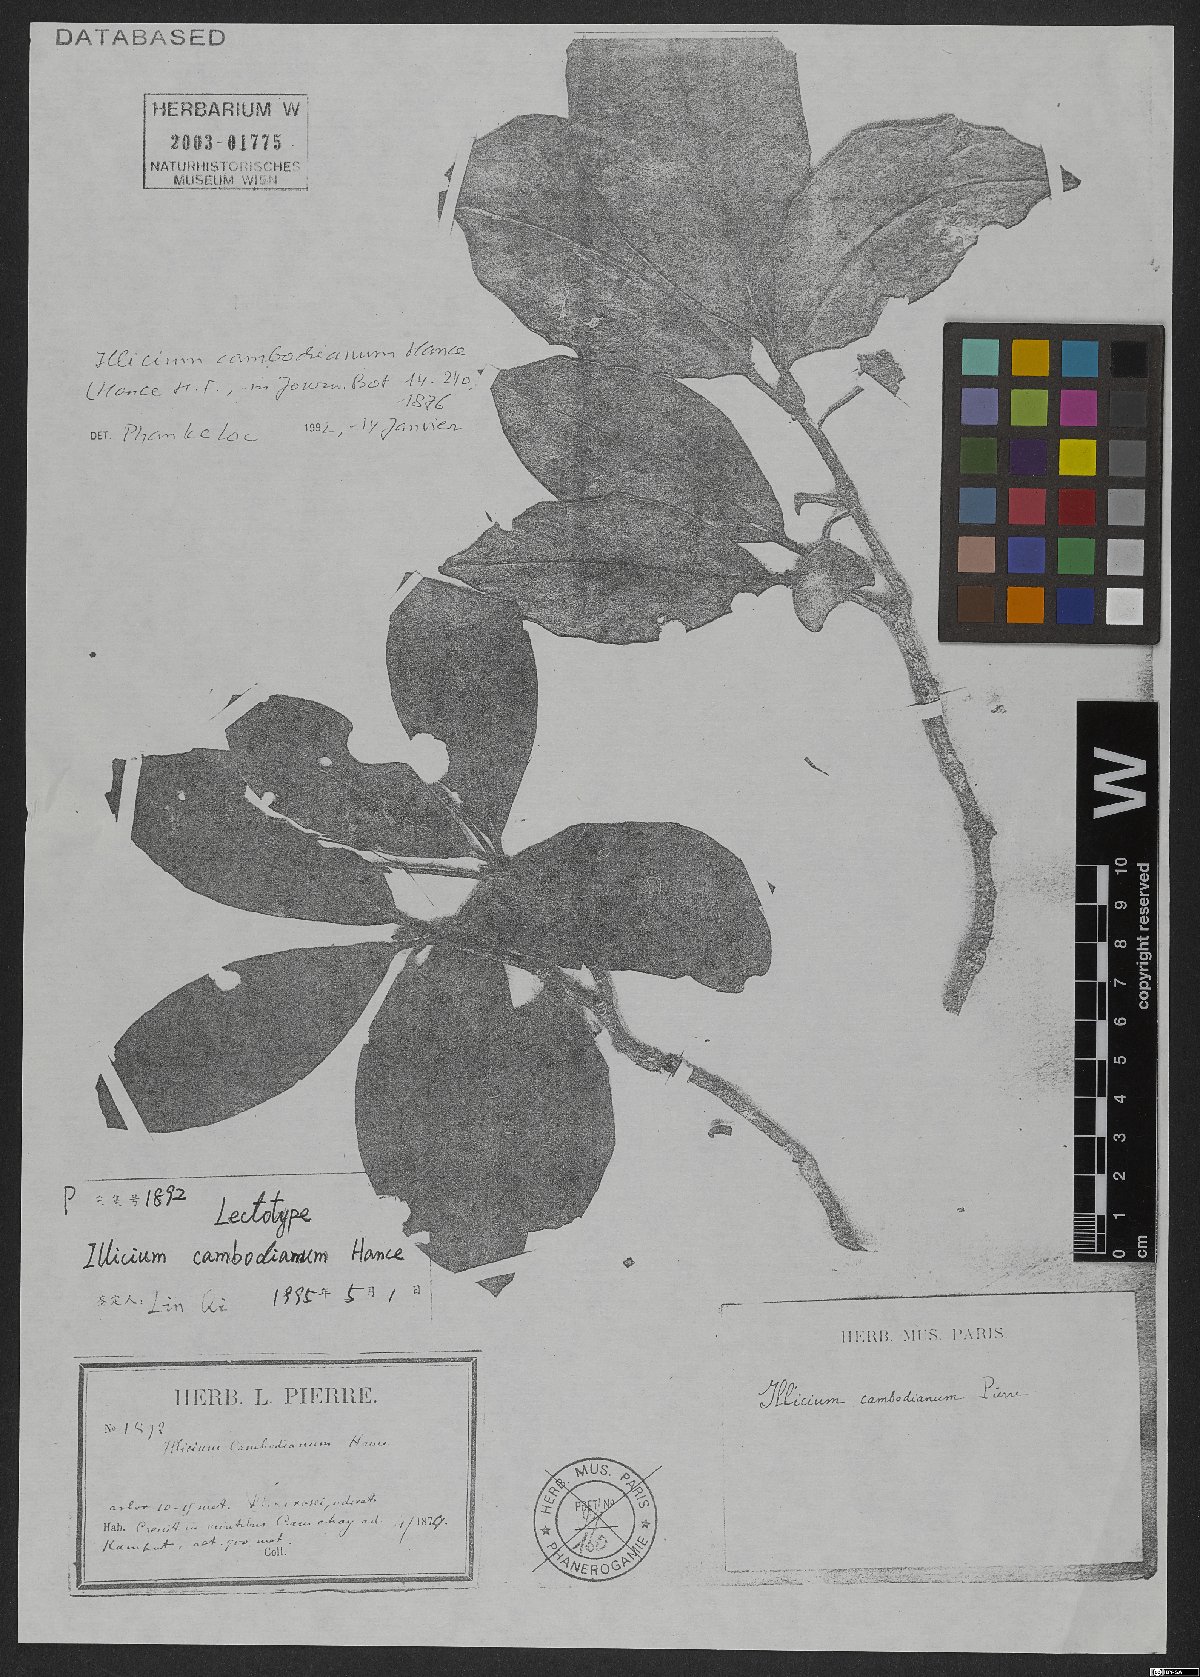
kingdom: Plantae
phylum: Tracheophyta
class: Magnoliopsida
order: Austrobaileyales
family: Schisandraceae
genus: Illicium
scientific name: Illicium griffithii
